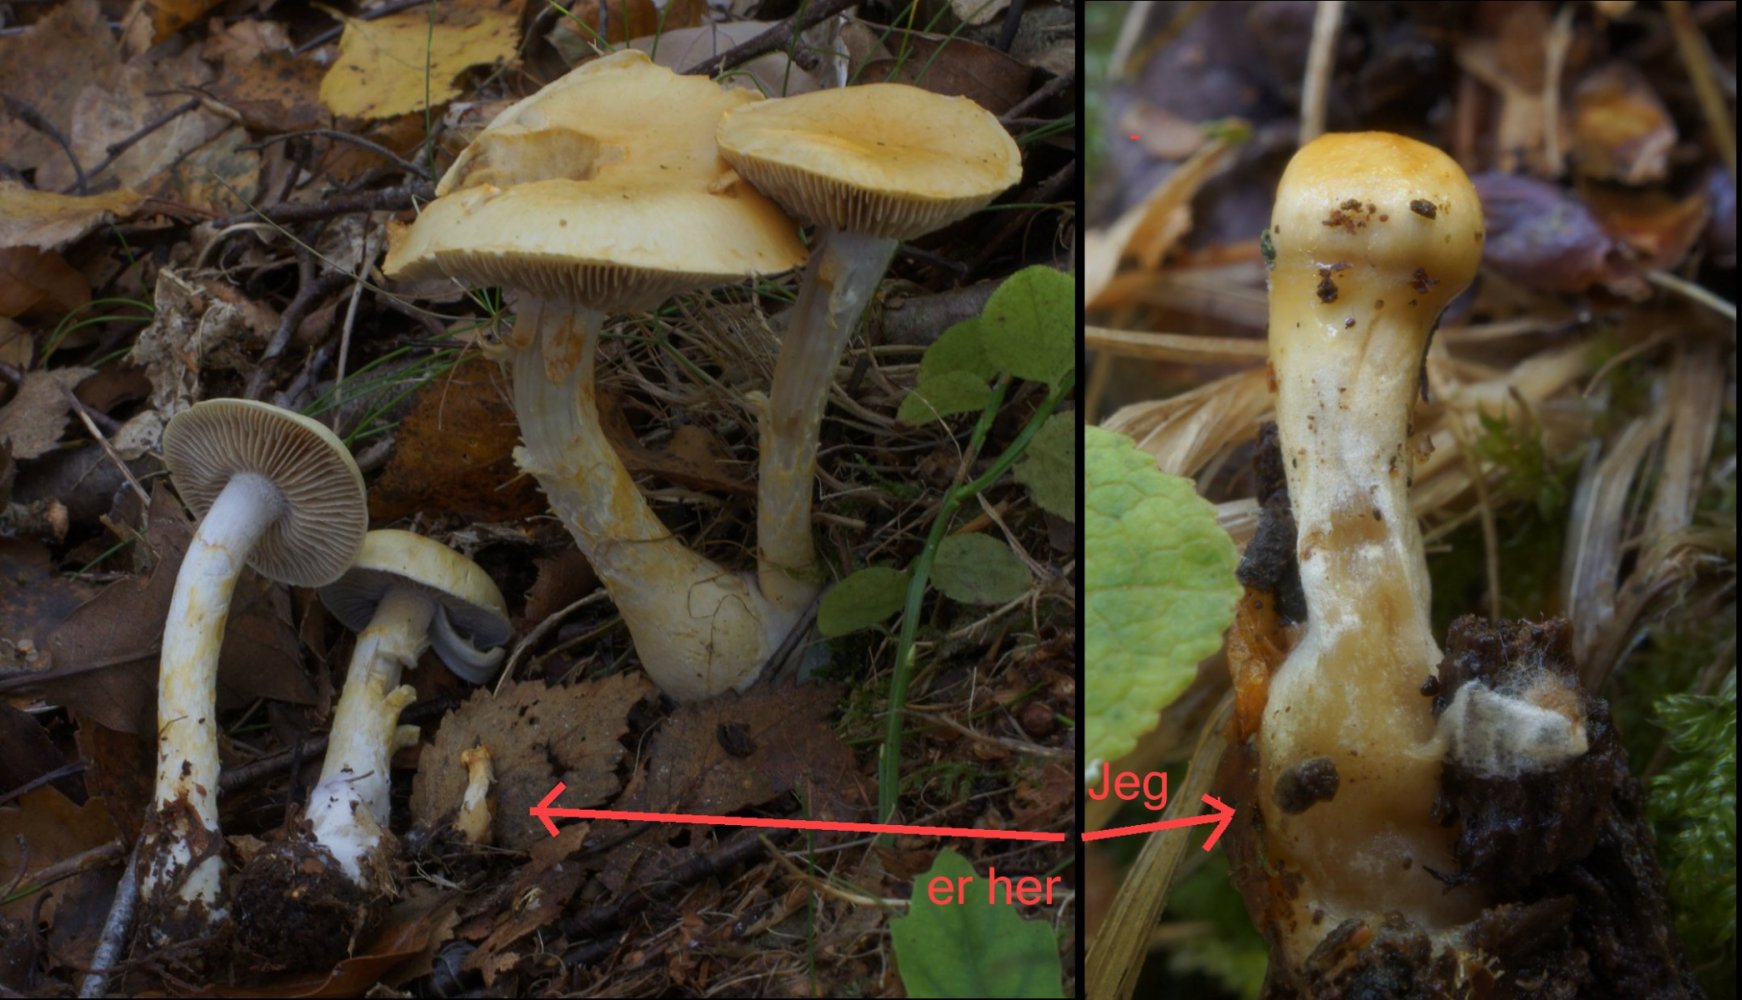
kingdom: Fungi
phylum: Basidiomycota
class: Agaricomycetes
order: Agaricales
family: Cortinariaceae
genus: Cortinarius
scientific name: Cortinarius delibutus
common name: gul slørhat
